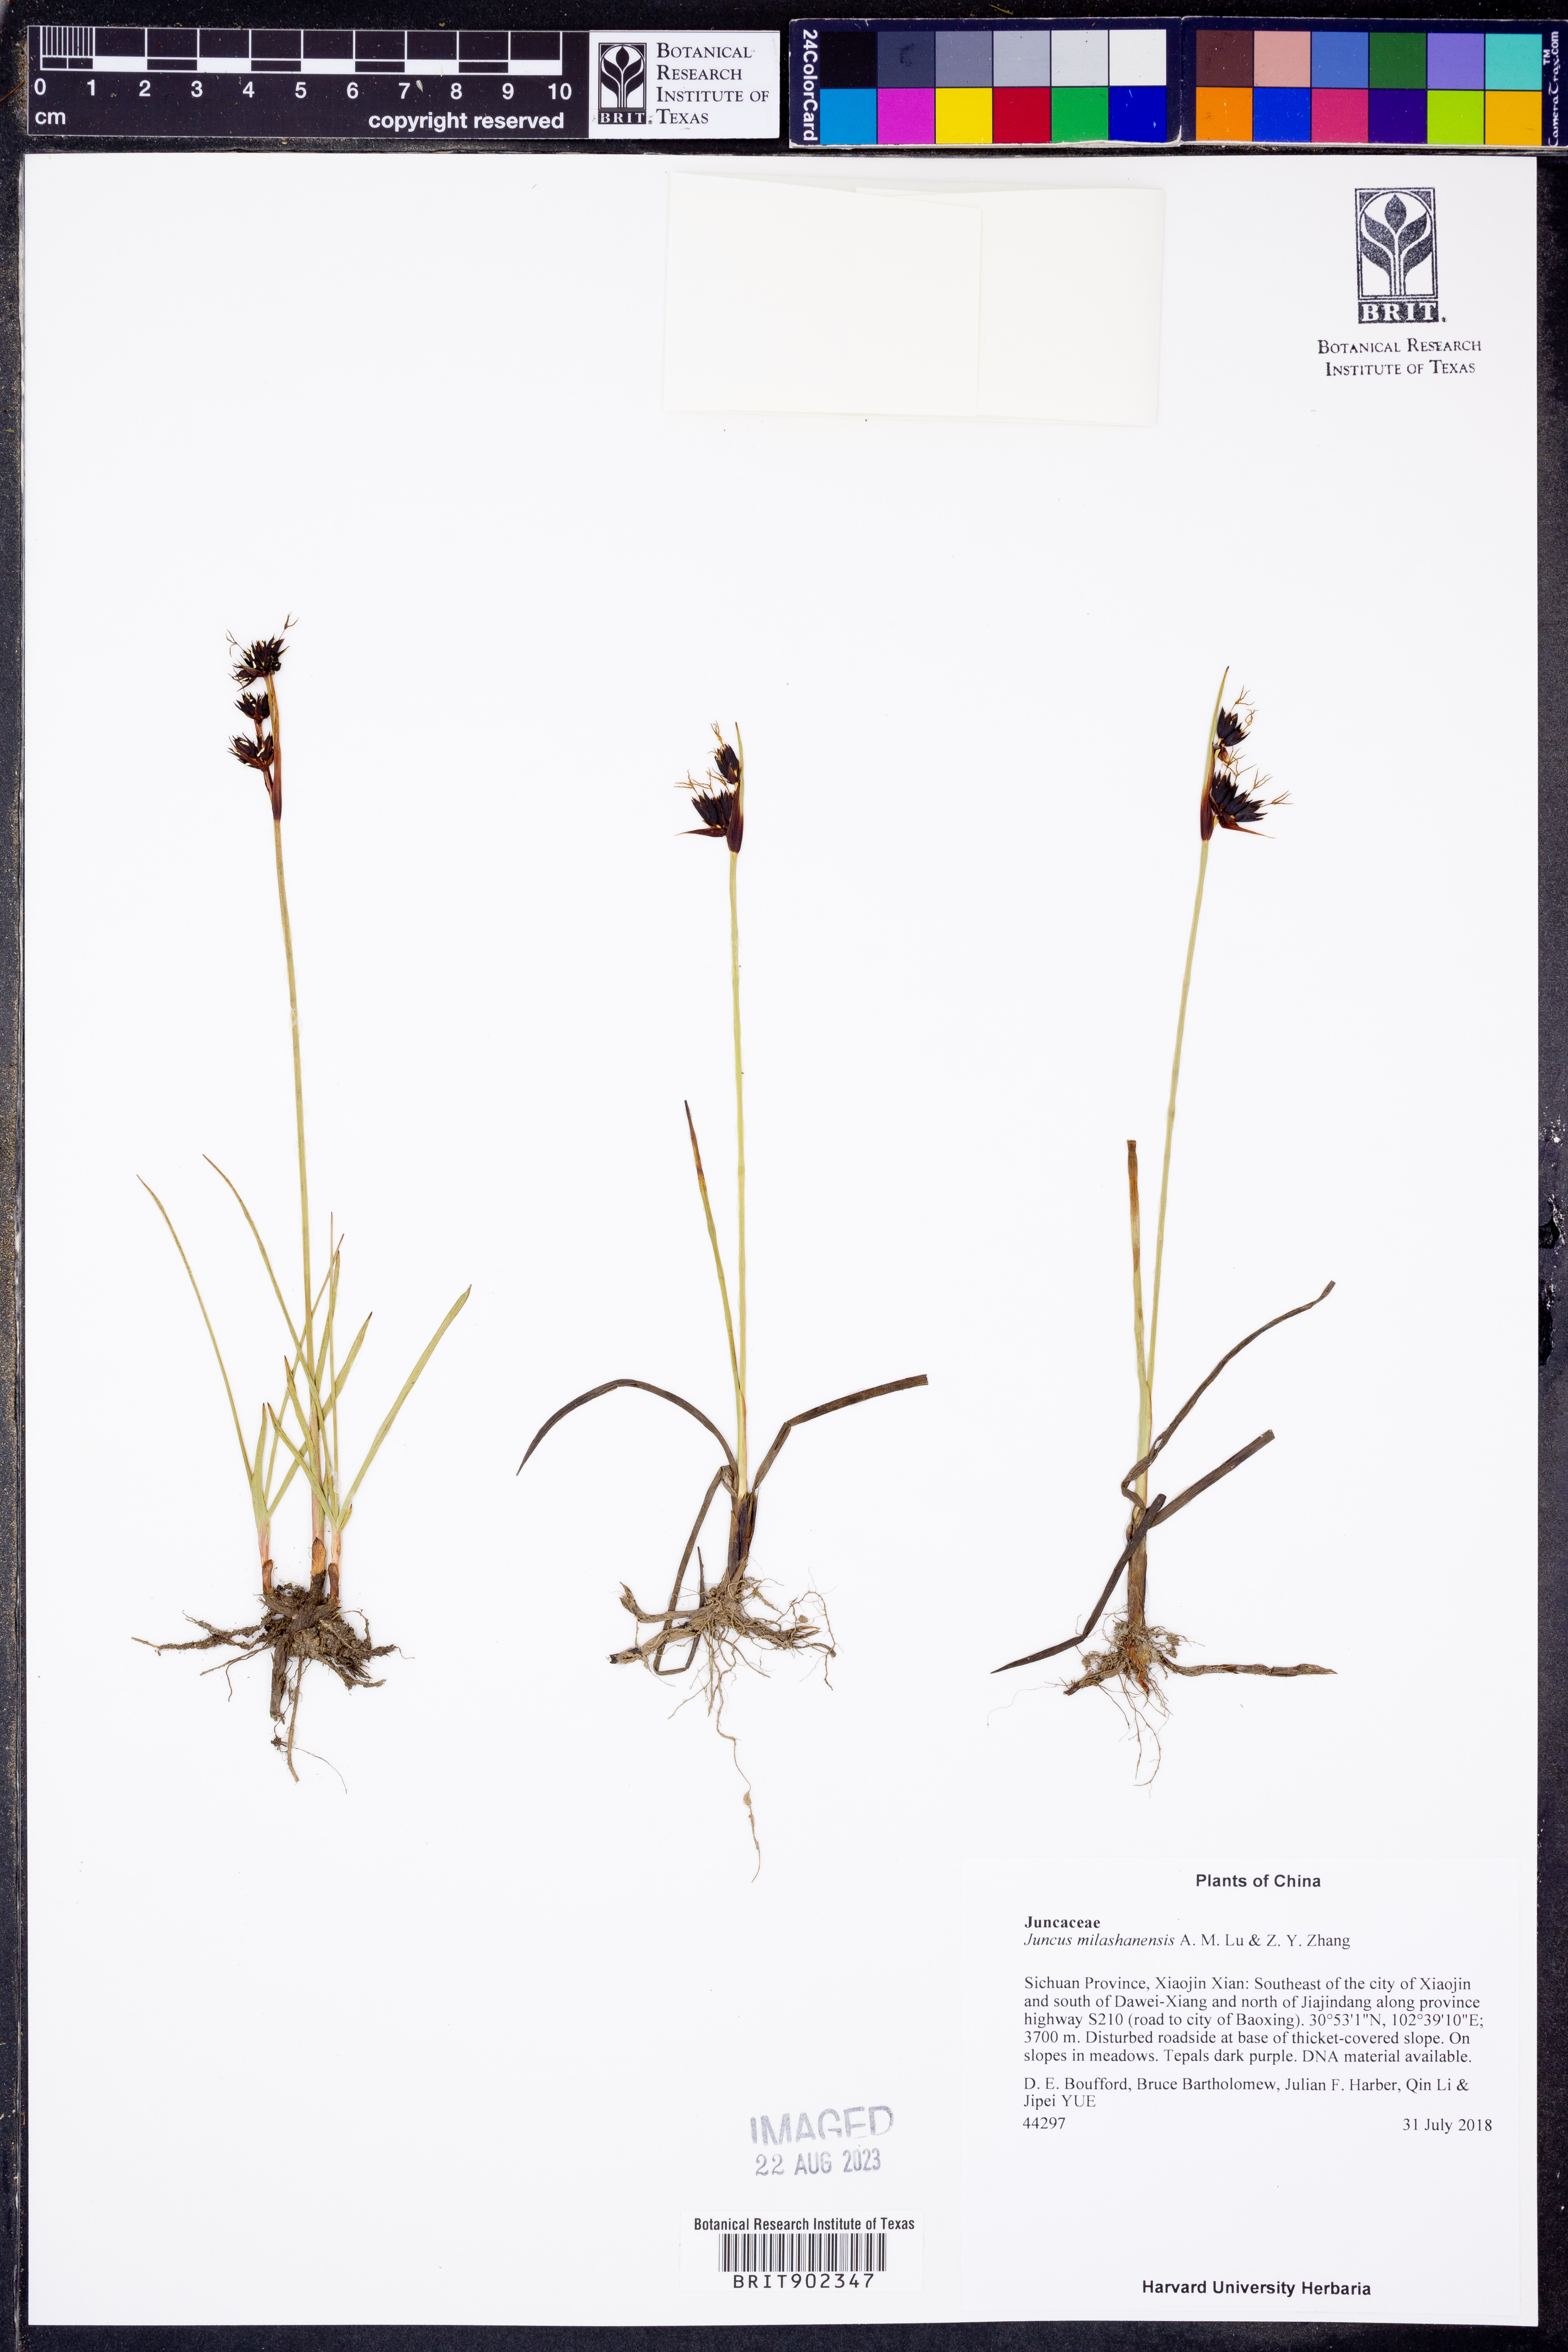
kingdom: Plantae
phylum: Tracheophyta
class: Liliopsida
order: Poales
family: Juncaceae
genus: Juncus
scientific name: Juncus
